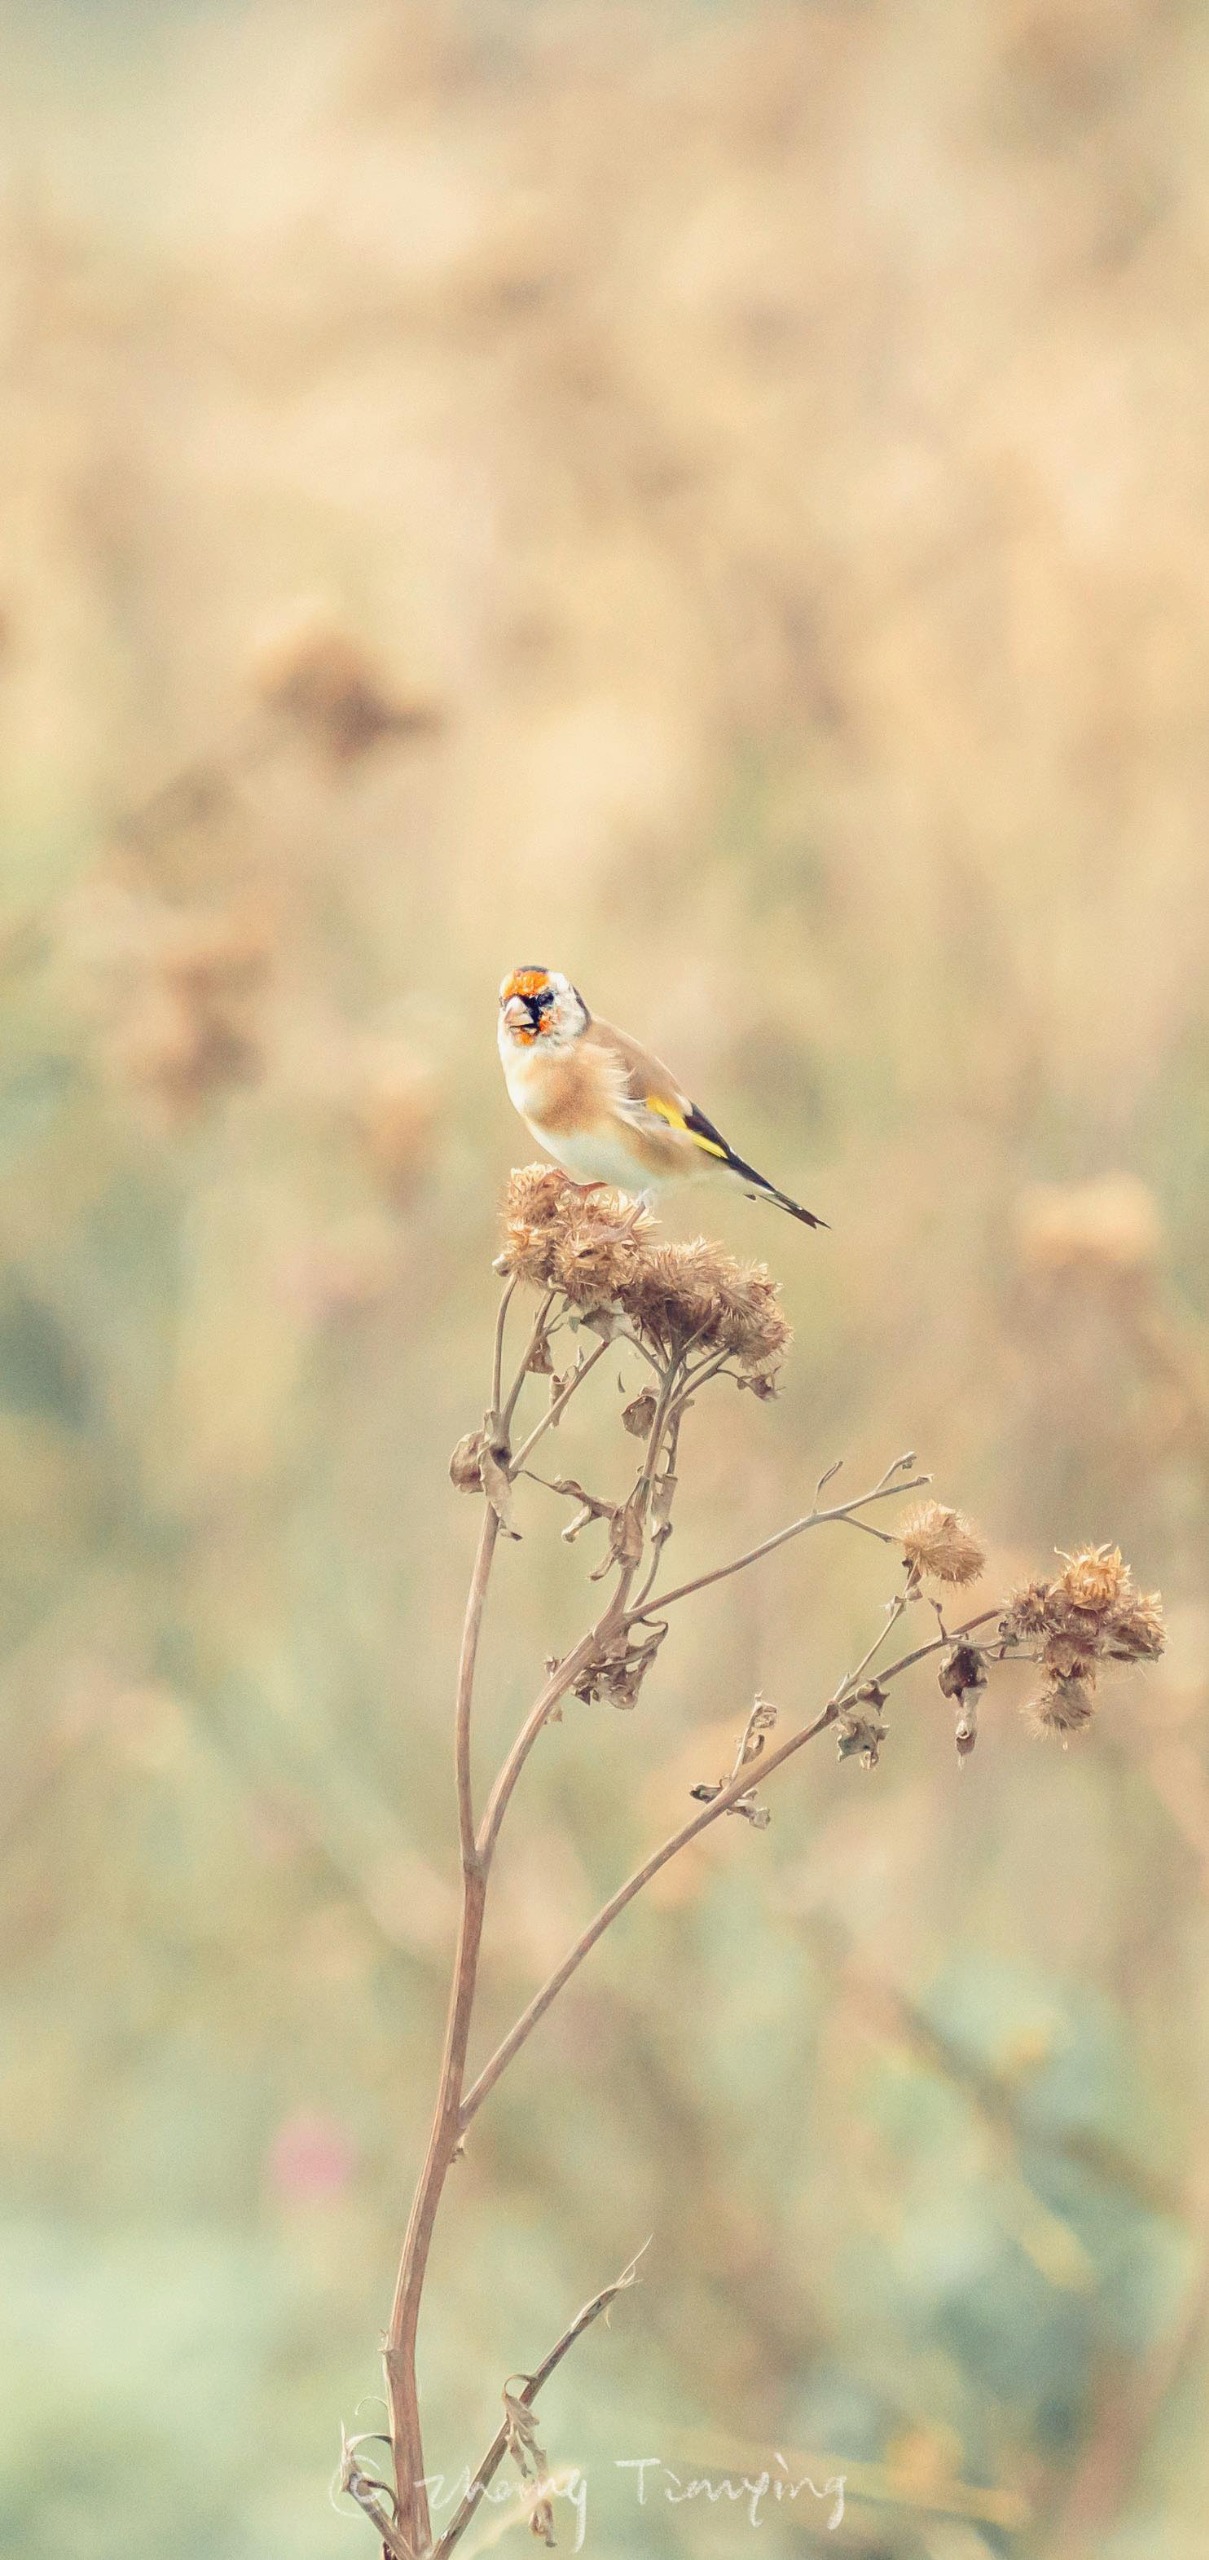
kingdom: Animalia
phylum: Chordata
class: Aves
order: Passeriformes
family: Fringillidae
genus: Carduelis
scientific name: Carduelis carduelis
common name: Stillits
